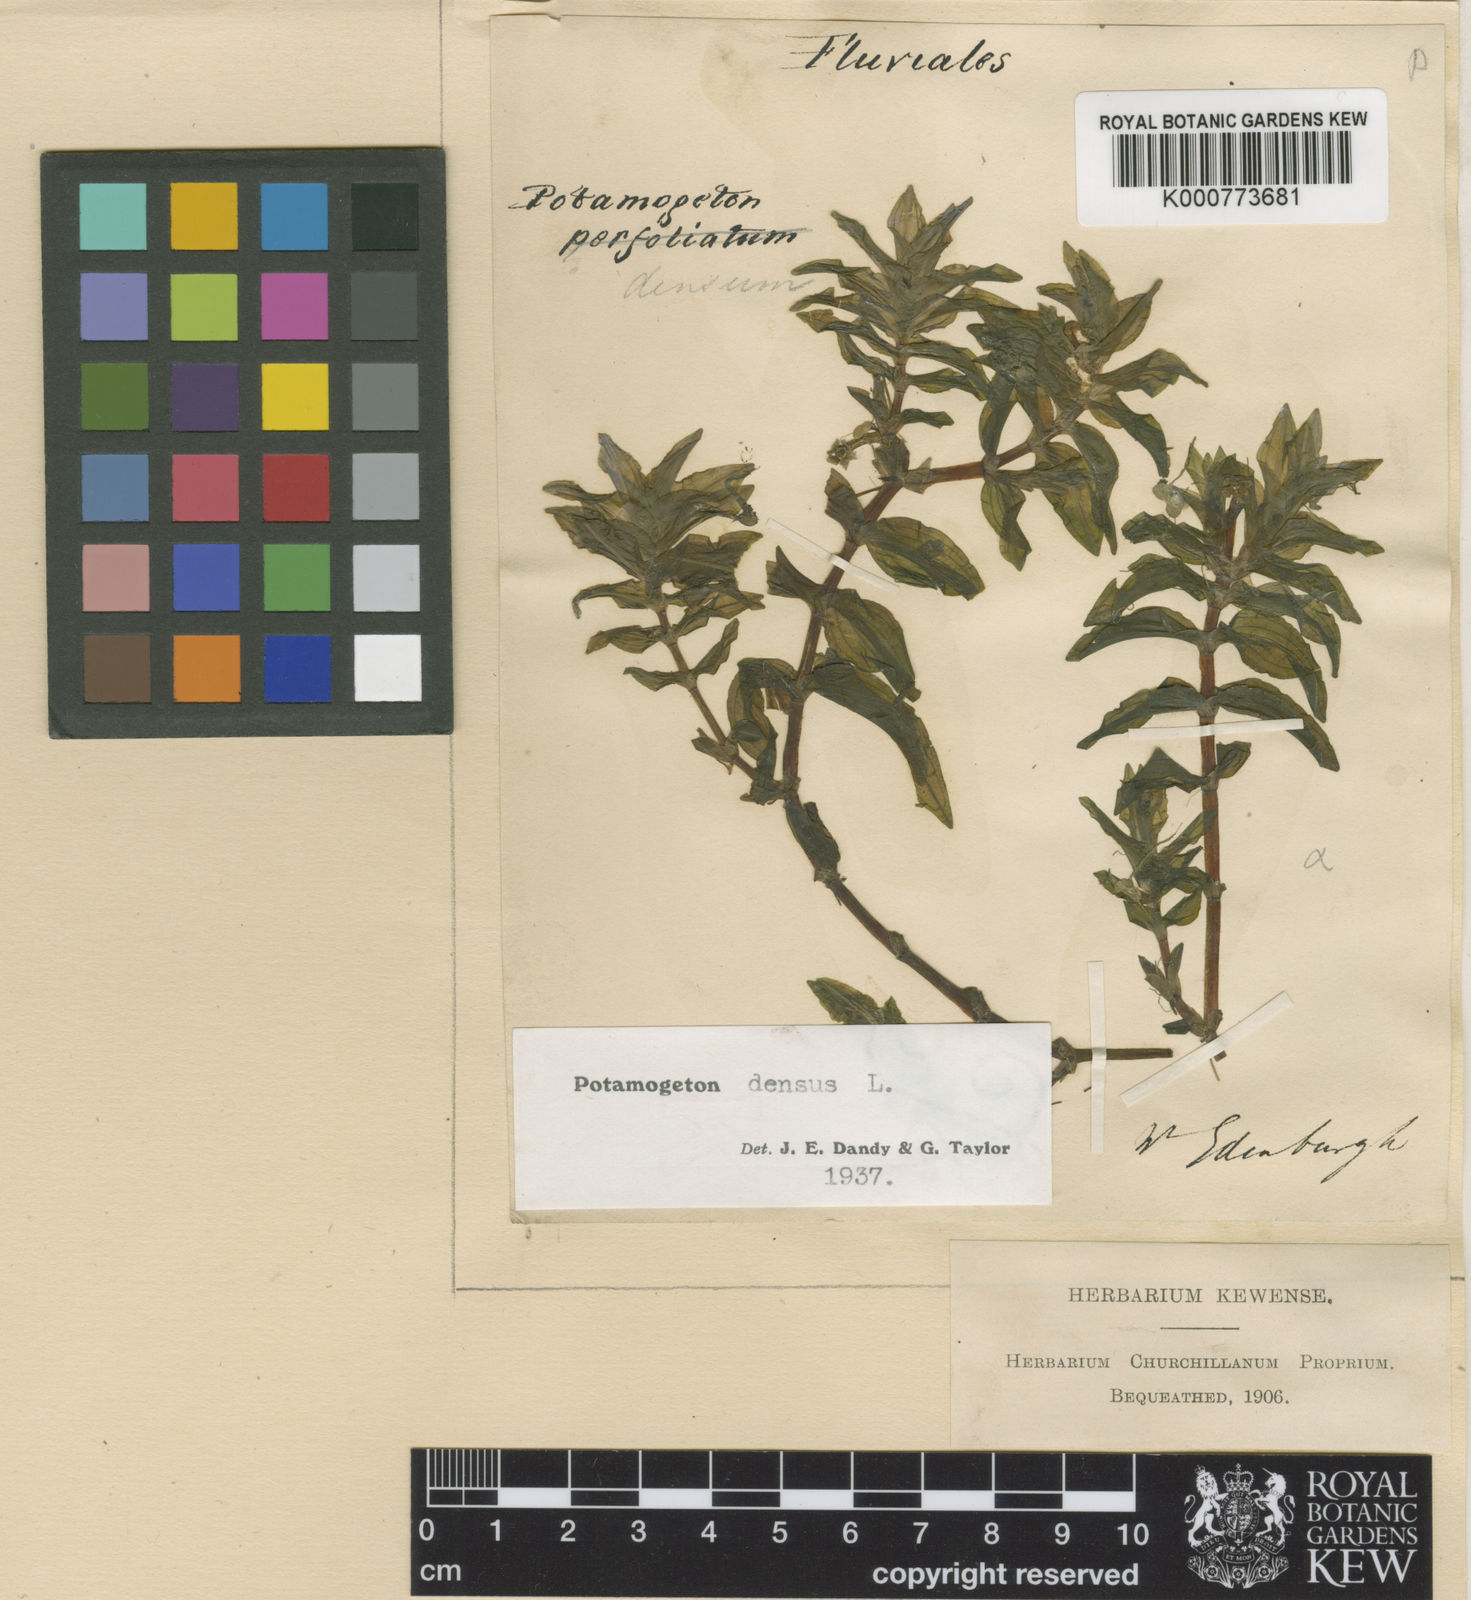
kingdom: Plantae
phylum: Tracheophyta
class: Liliopsida
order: Alismatales
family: Potamogetonaceae
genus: Groenlandia
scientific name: Groenlandia densa
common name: Opposite-leaved pondweed
